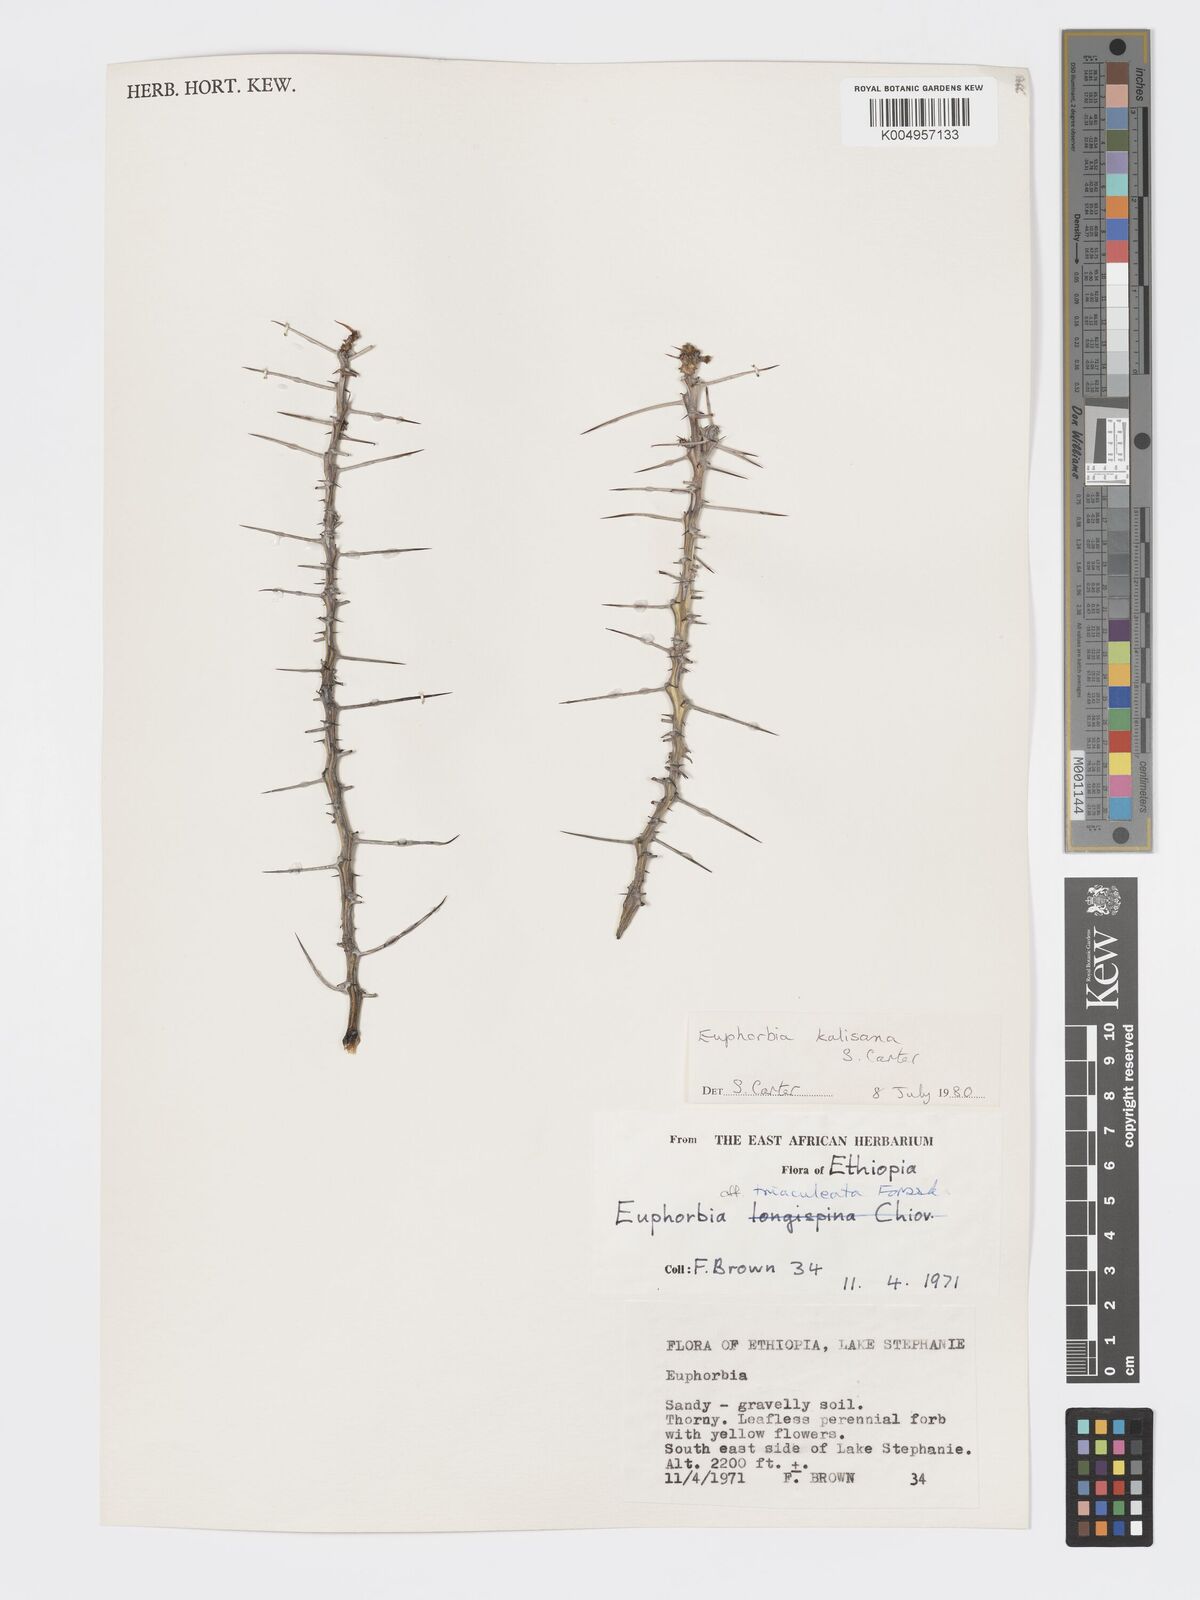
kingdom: Plantae
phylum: Tracheophyta
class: Magnoliopsida
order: Malpighiales
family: Euphorbiaceae
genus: Euphorbia
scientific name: Euphorbia kalisana
